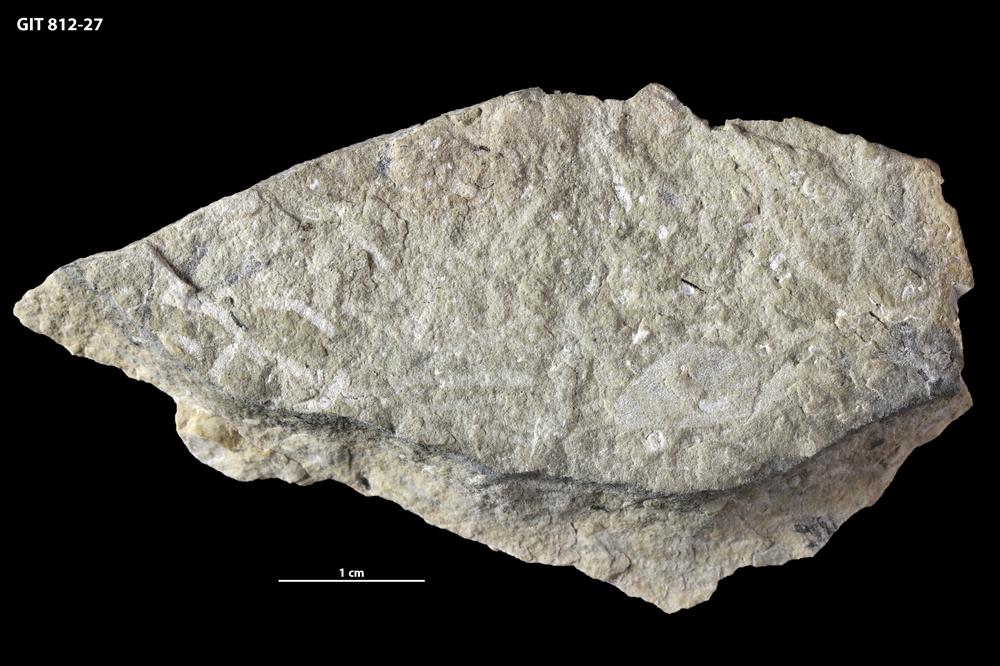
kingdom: Animalia
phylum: Porifera
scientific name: Porifera
